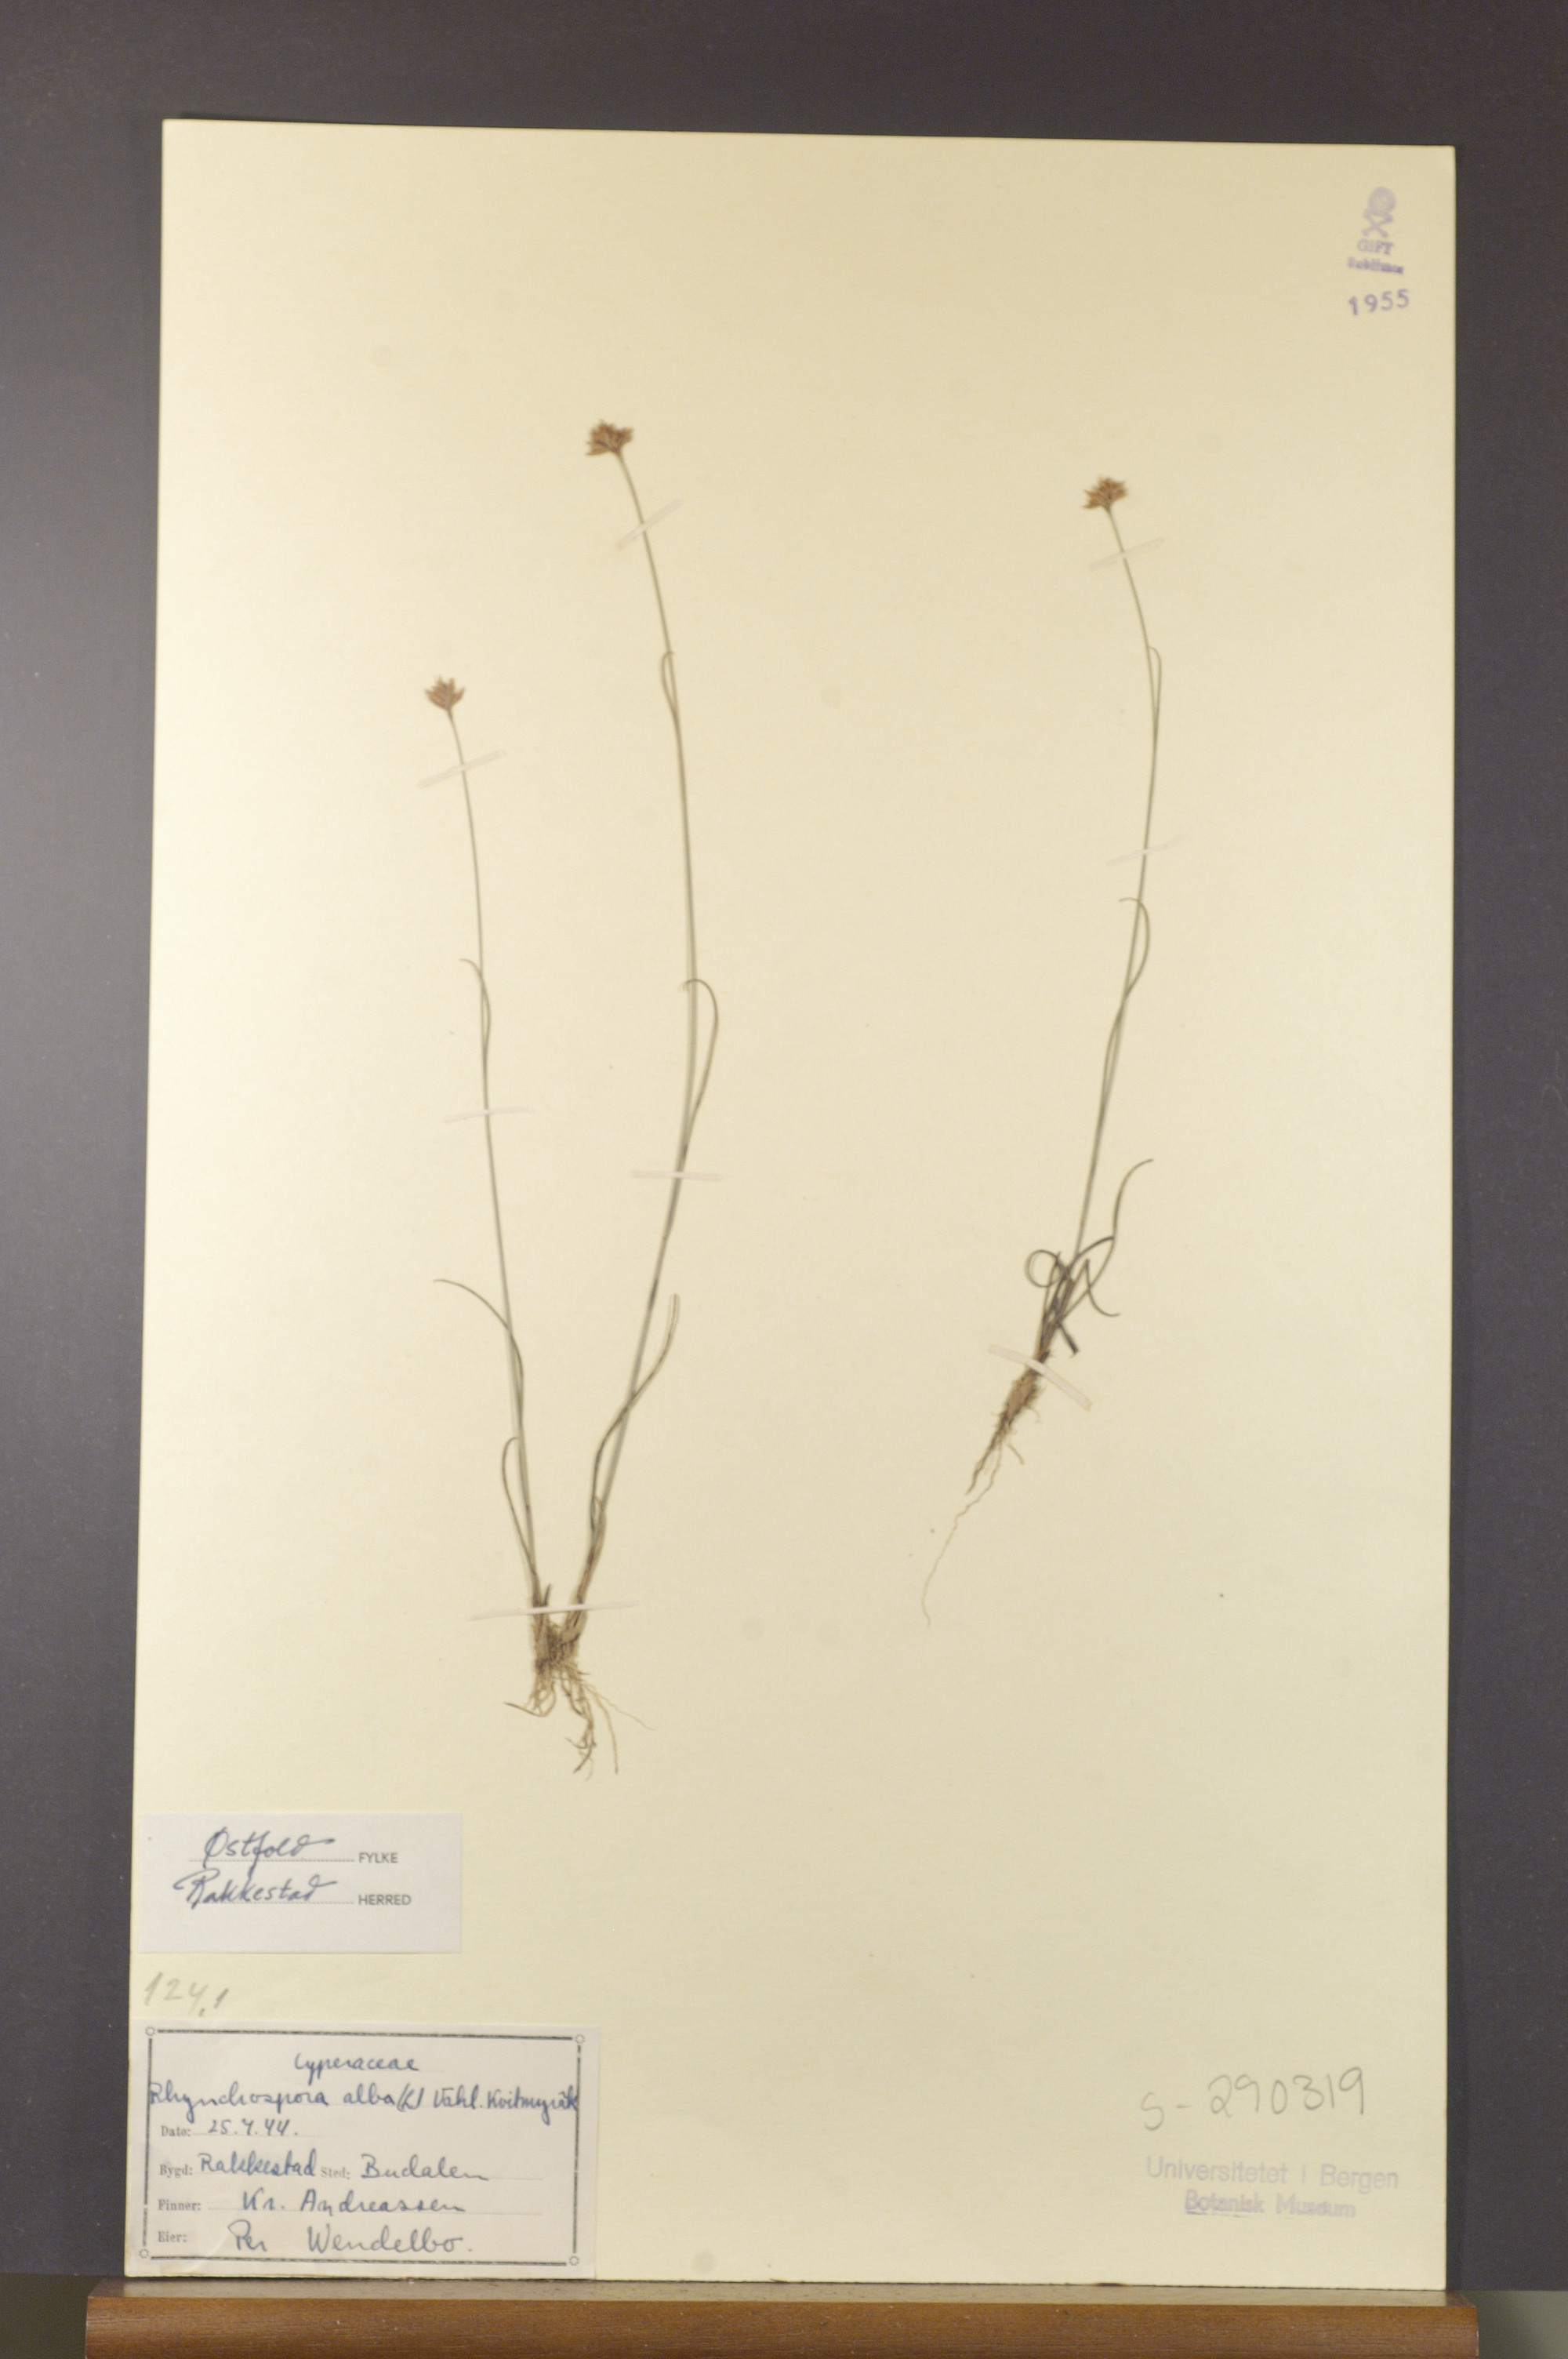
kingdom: Plantae
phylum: Tracheophyta
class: Liliopsida
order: Poales
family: Cyperaceae
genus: Rhynchospora
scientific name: Rhynchospora alba
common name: White beak-sedge
